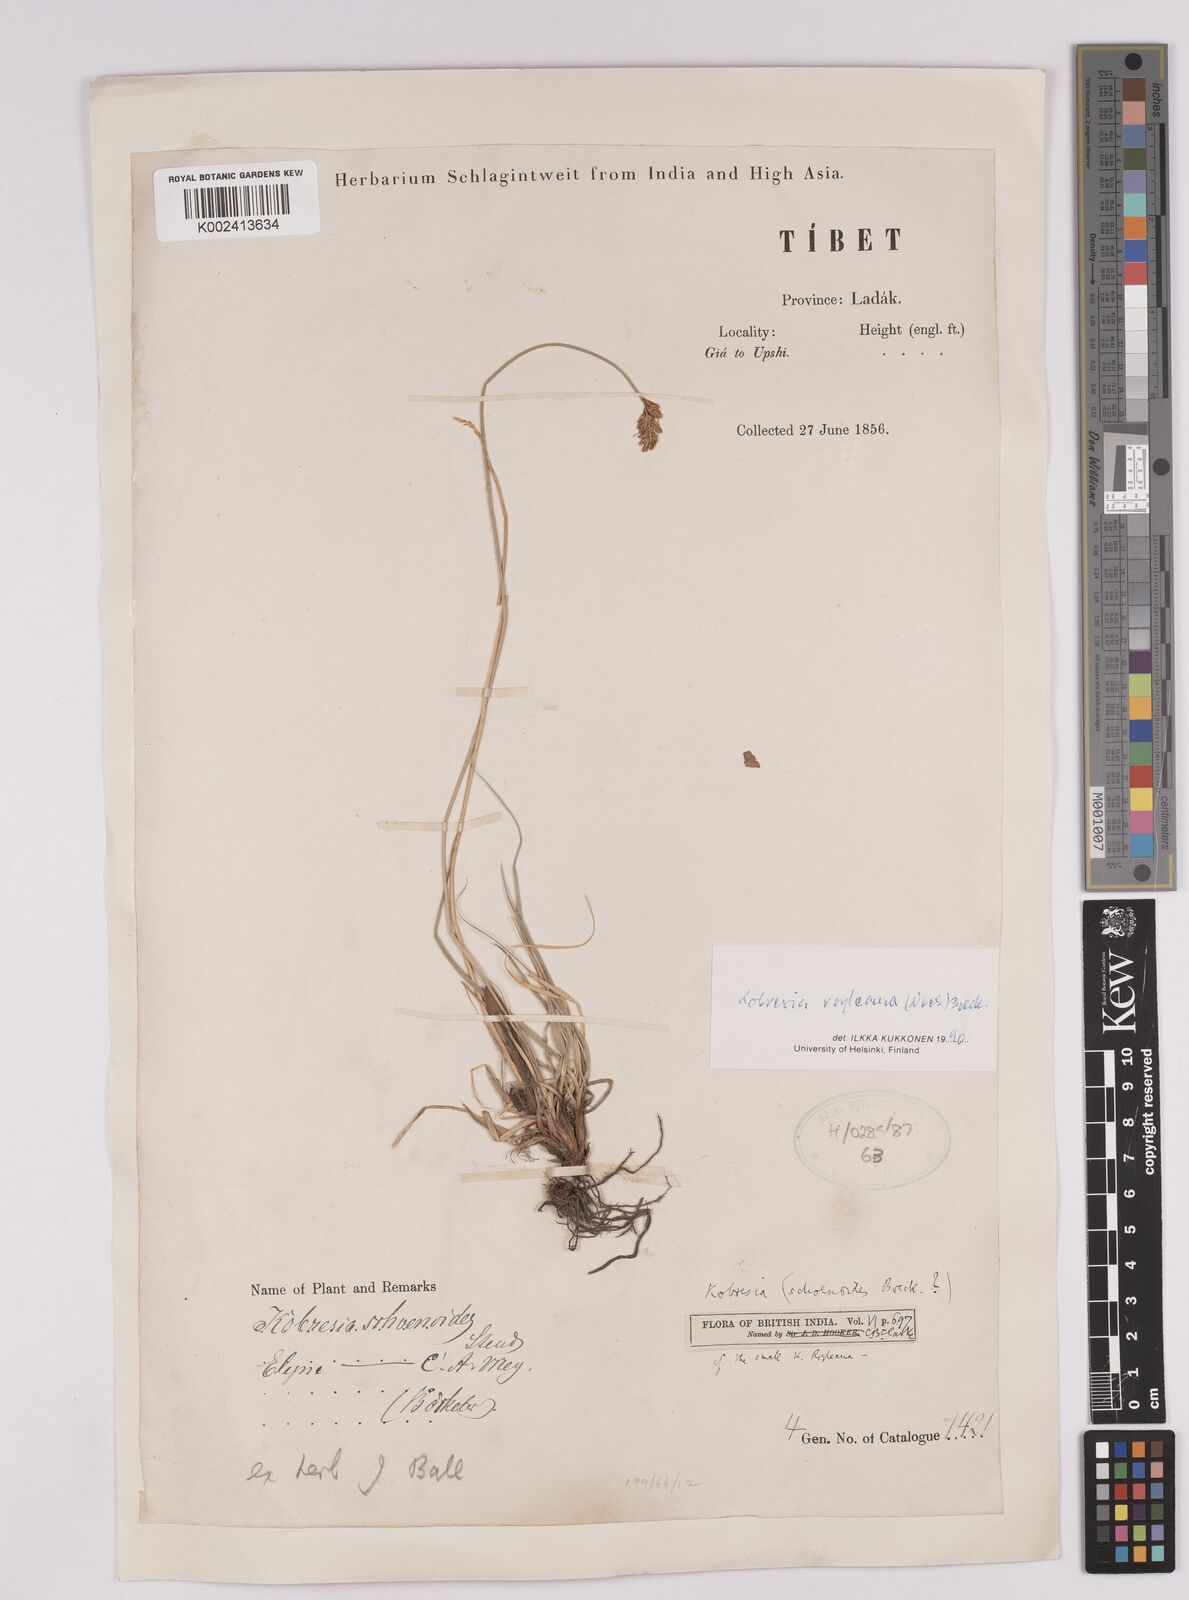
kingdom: Plantae
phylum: Tracheophyta
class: Liliopsida
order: Poales
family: Cyperaceae
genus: Carex
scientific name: Carex kokanica
